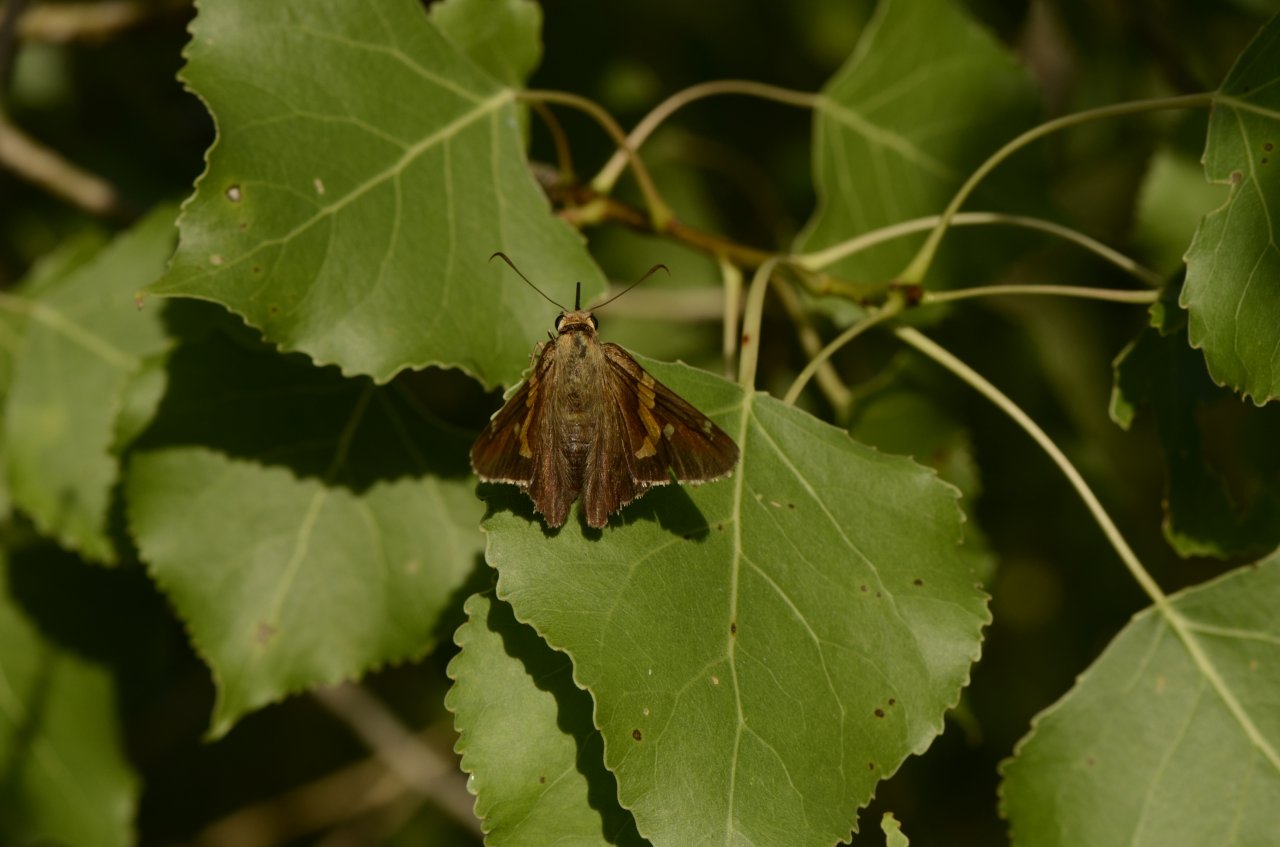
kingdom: Animalia
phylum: Arthropoda
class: Insecta
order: Lepidoptera
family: Hesperiidae
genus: Epargyreus
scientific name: Epargyreus clarus
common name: Silver-spotted Skipper
